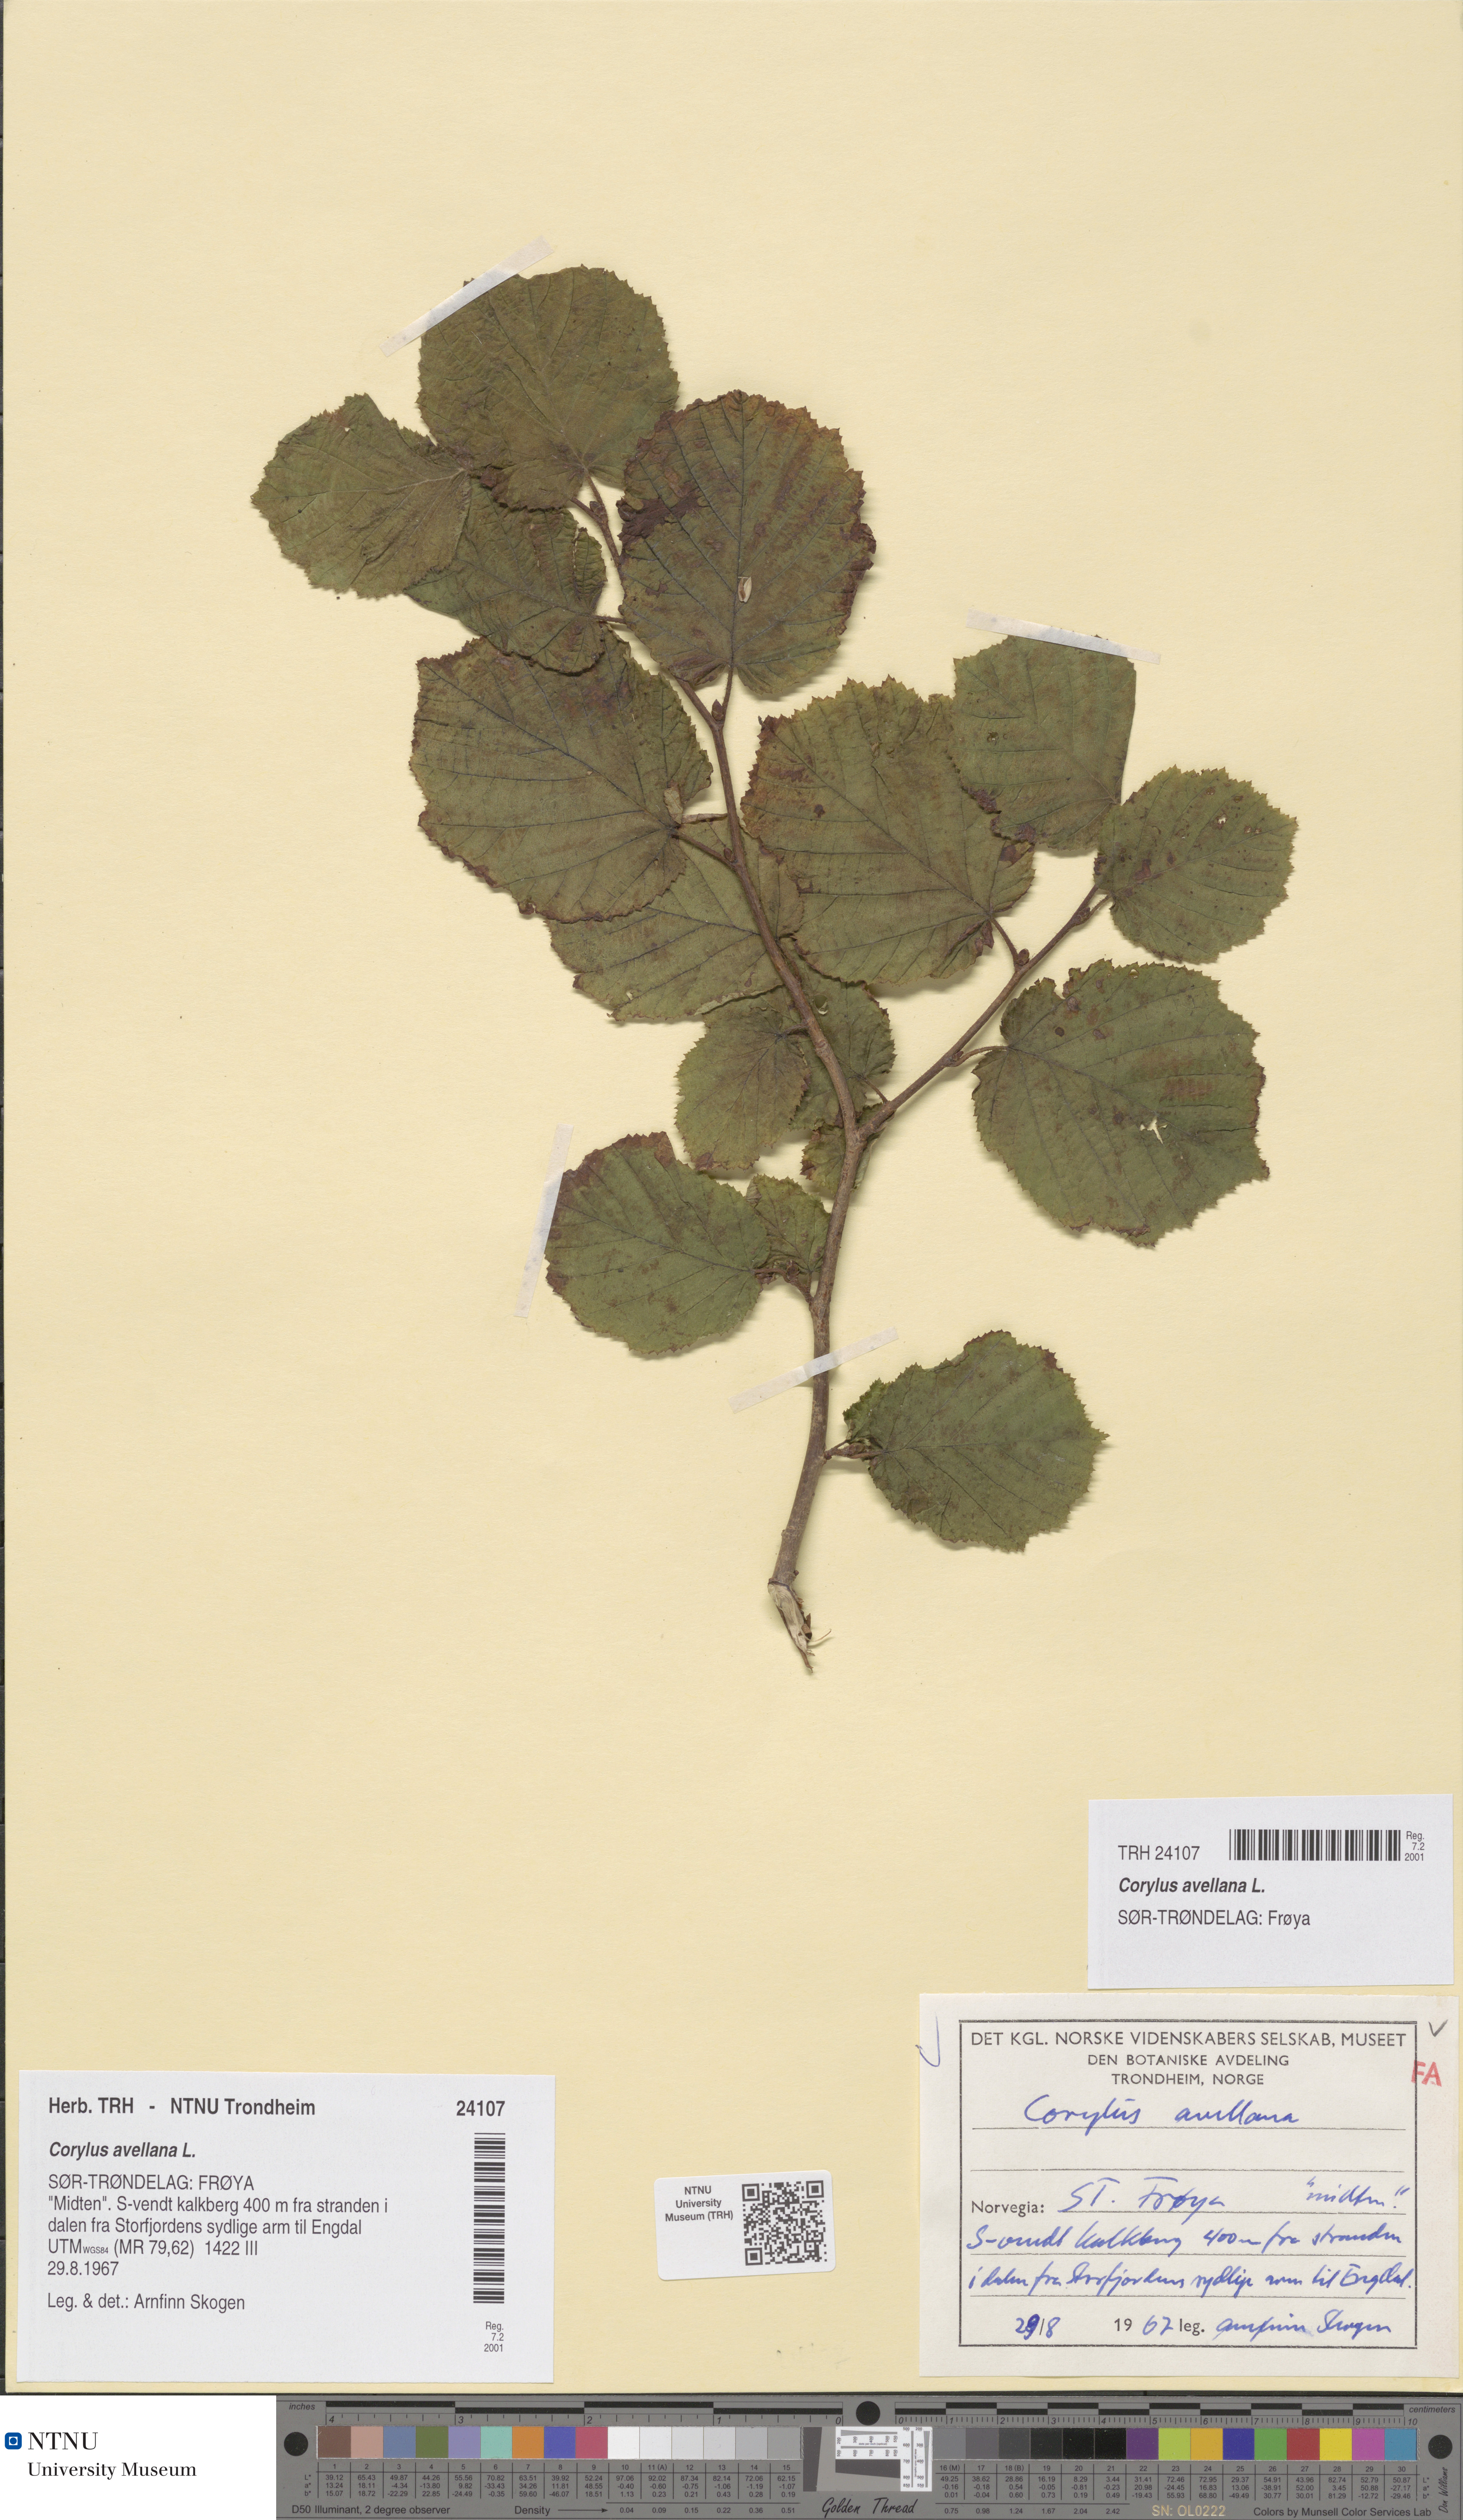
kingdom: Plantae
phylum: Tracheophyta
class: Magnoliopsida
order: Fagales
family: Betulaceae
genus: Corylus
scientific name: Corylus avellana
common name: European hazel
